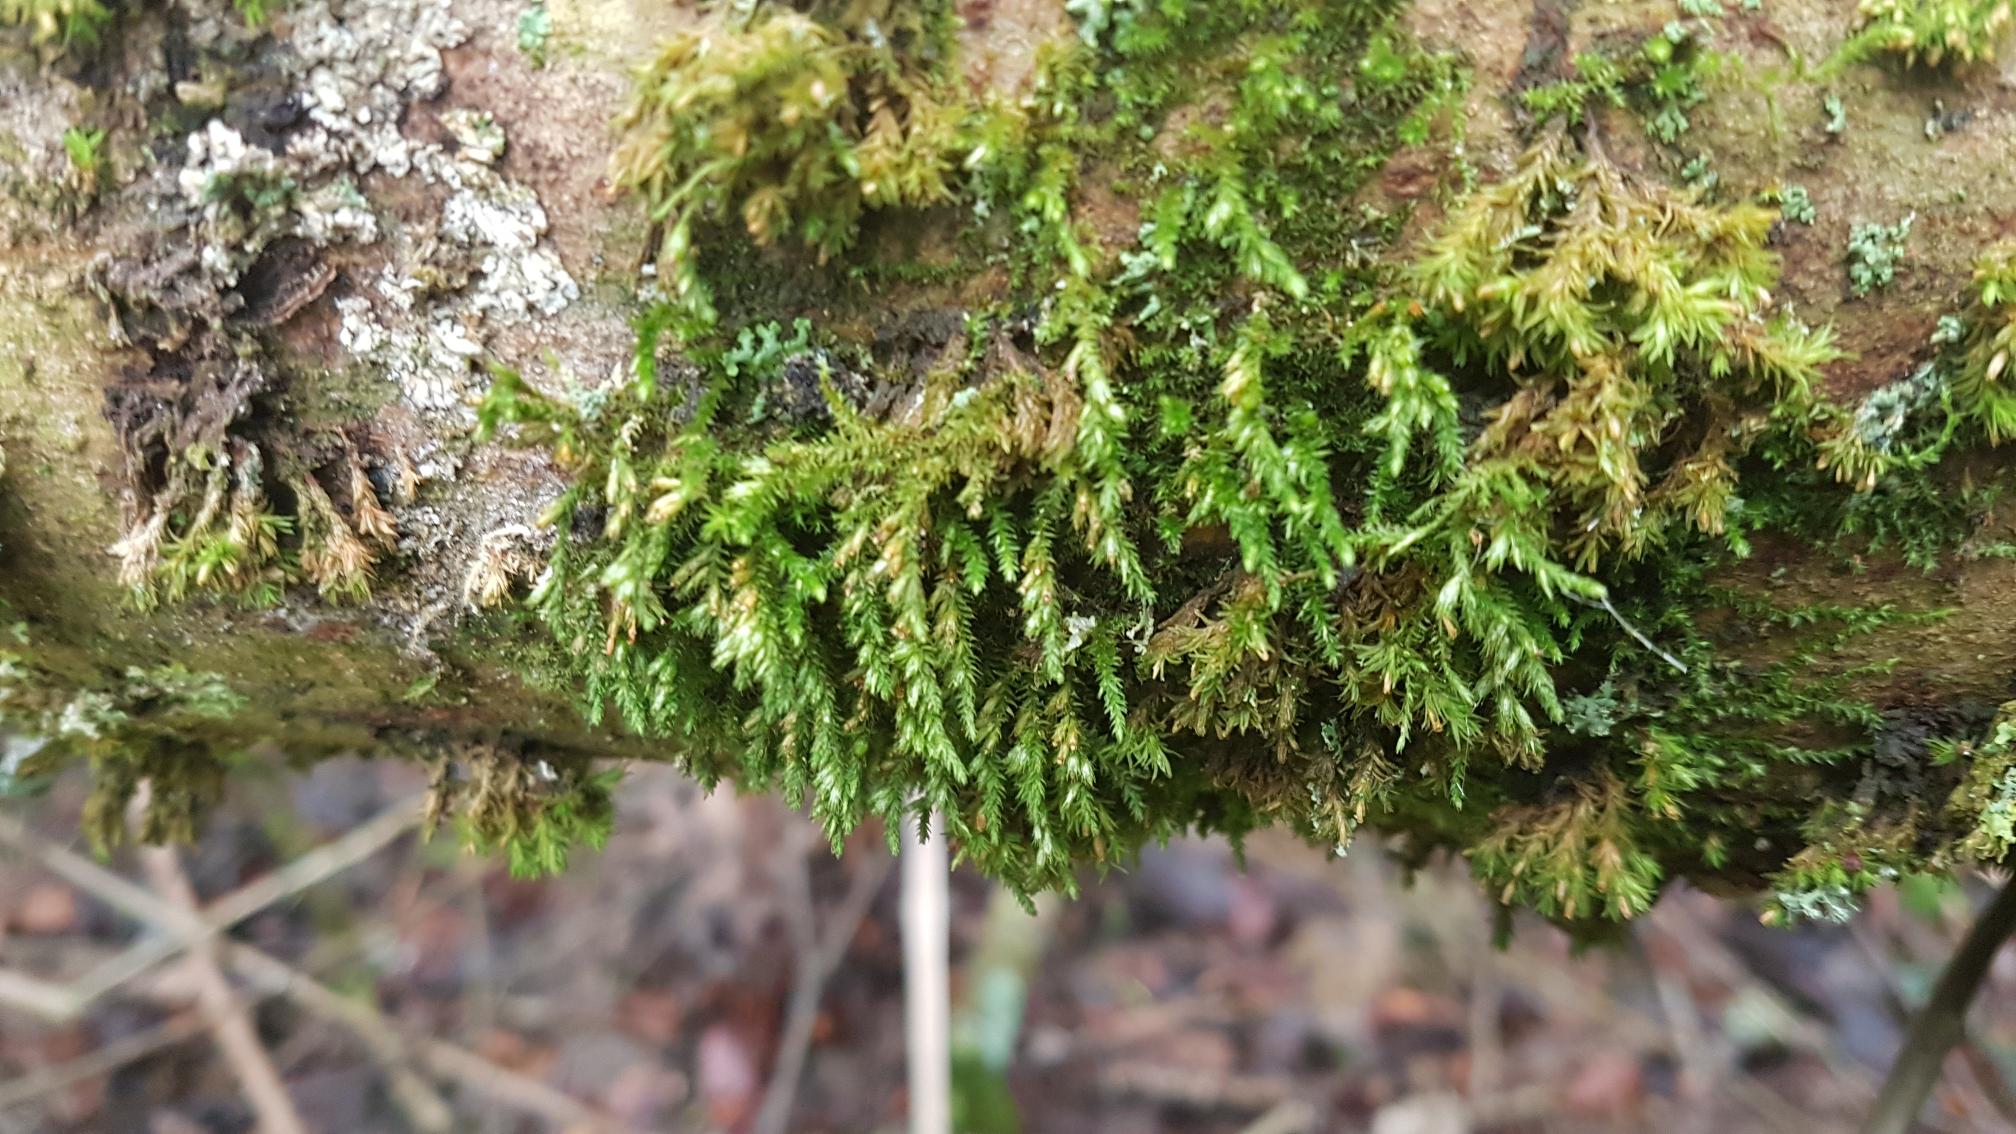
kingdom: Plantae
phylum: Bryophyta
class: Bryopsida
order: Hypnales
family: Cryphaeaceae
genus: Cryphaea
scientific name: Cryphaea heteromalla
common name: Bark-dækmos
